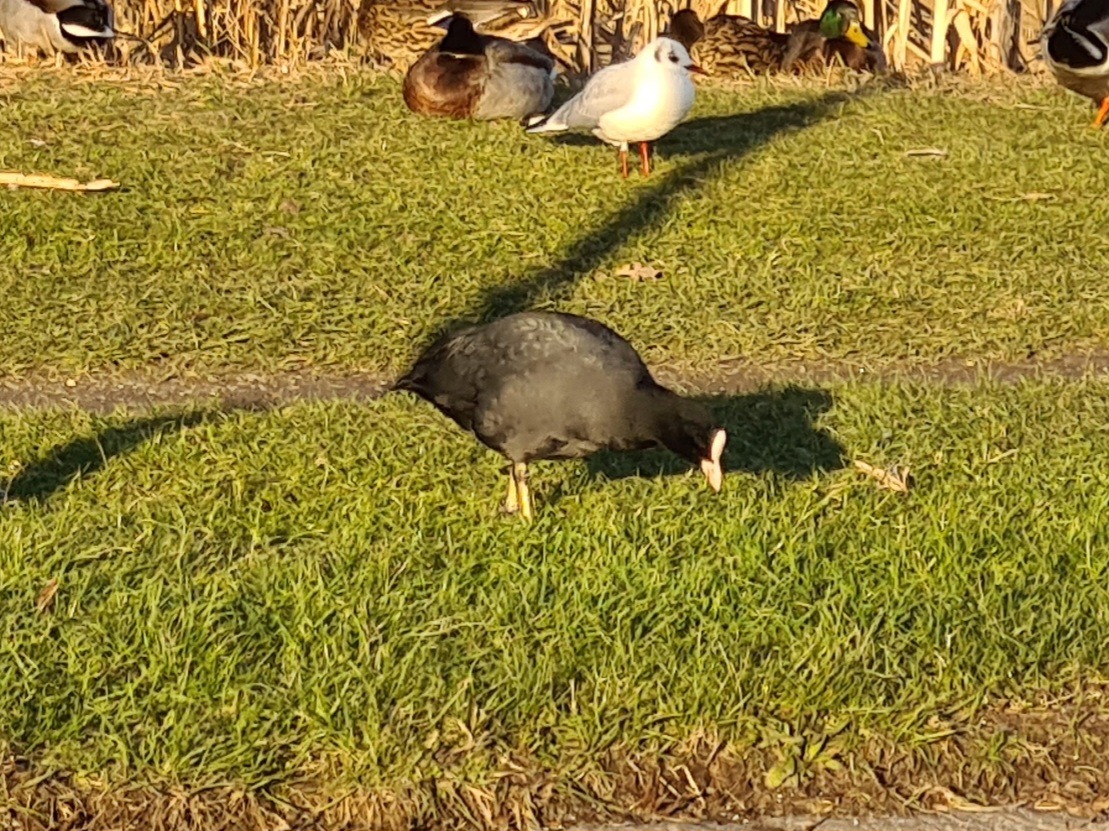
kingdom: Animalia
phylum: Chordata
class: Aves
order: Gruiformes
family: Rallidae
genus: Fulica
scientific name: Fulica atra
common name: Blishøne
